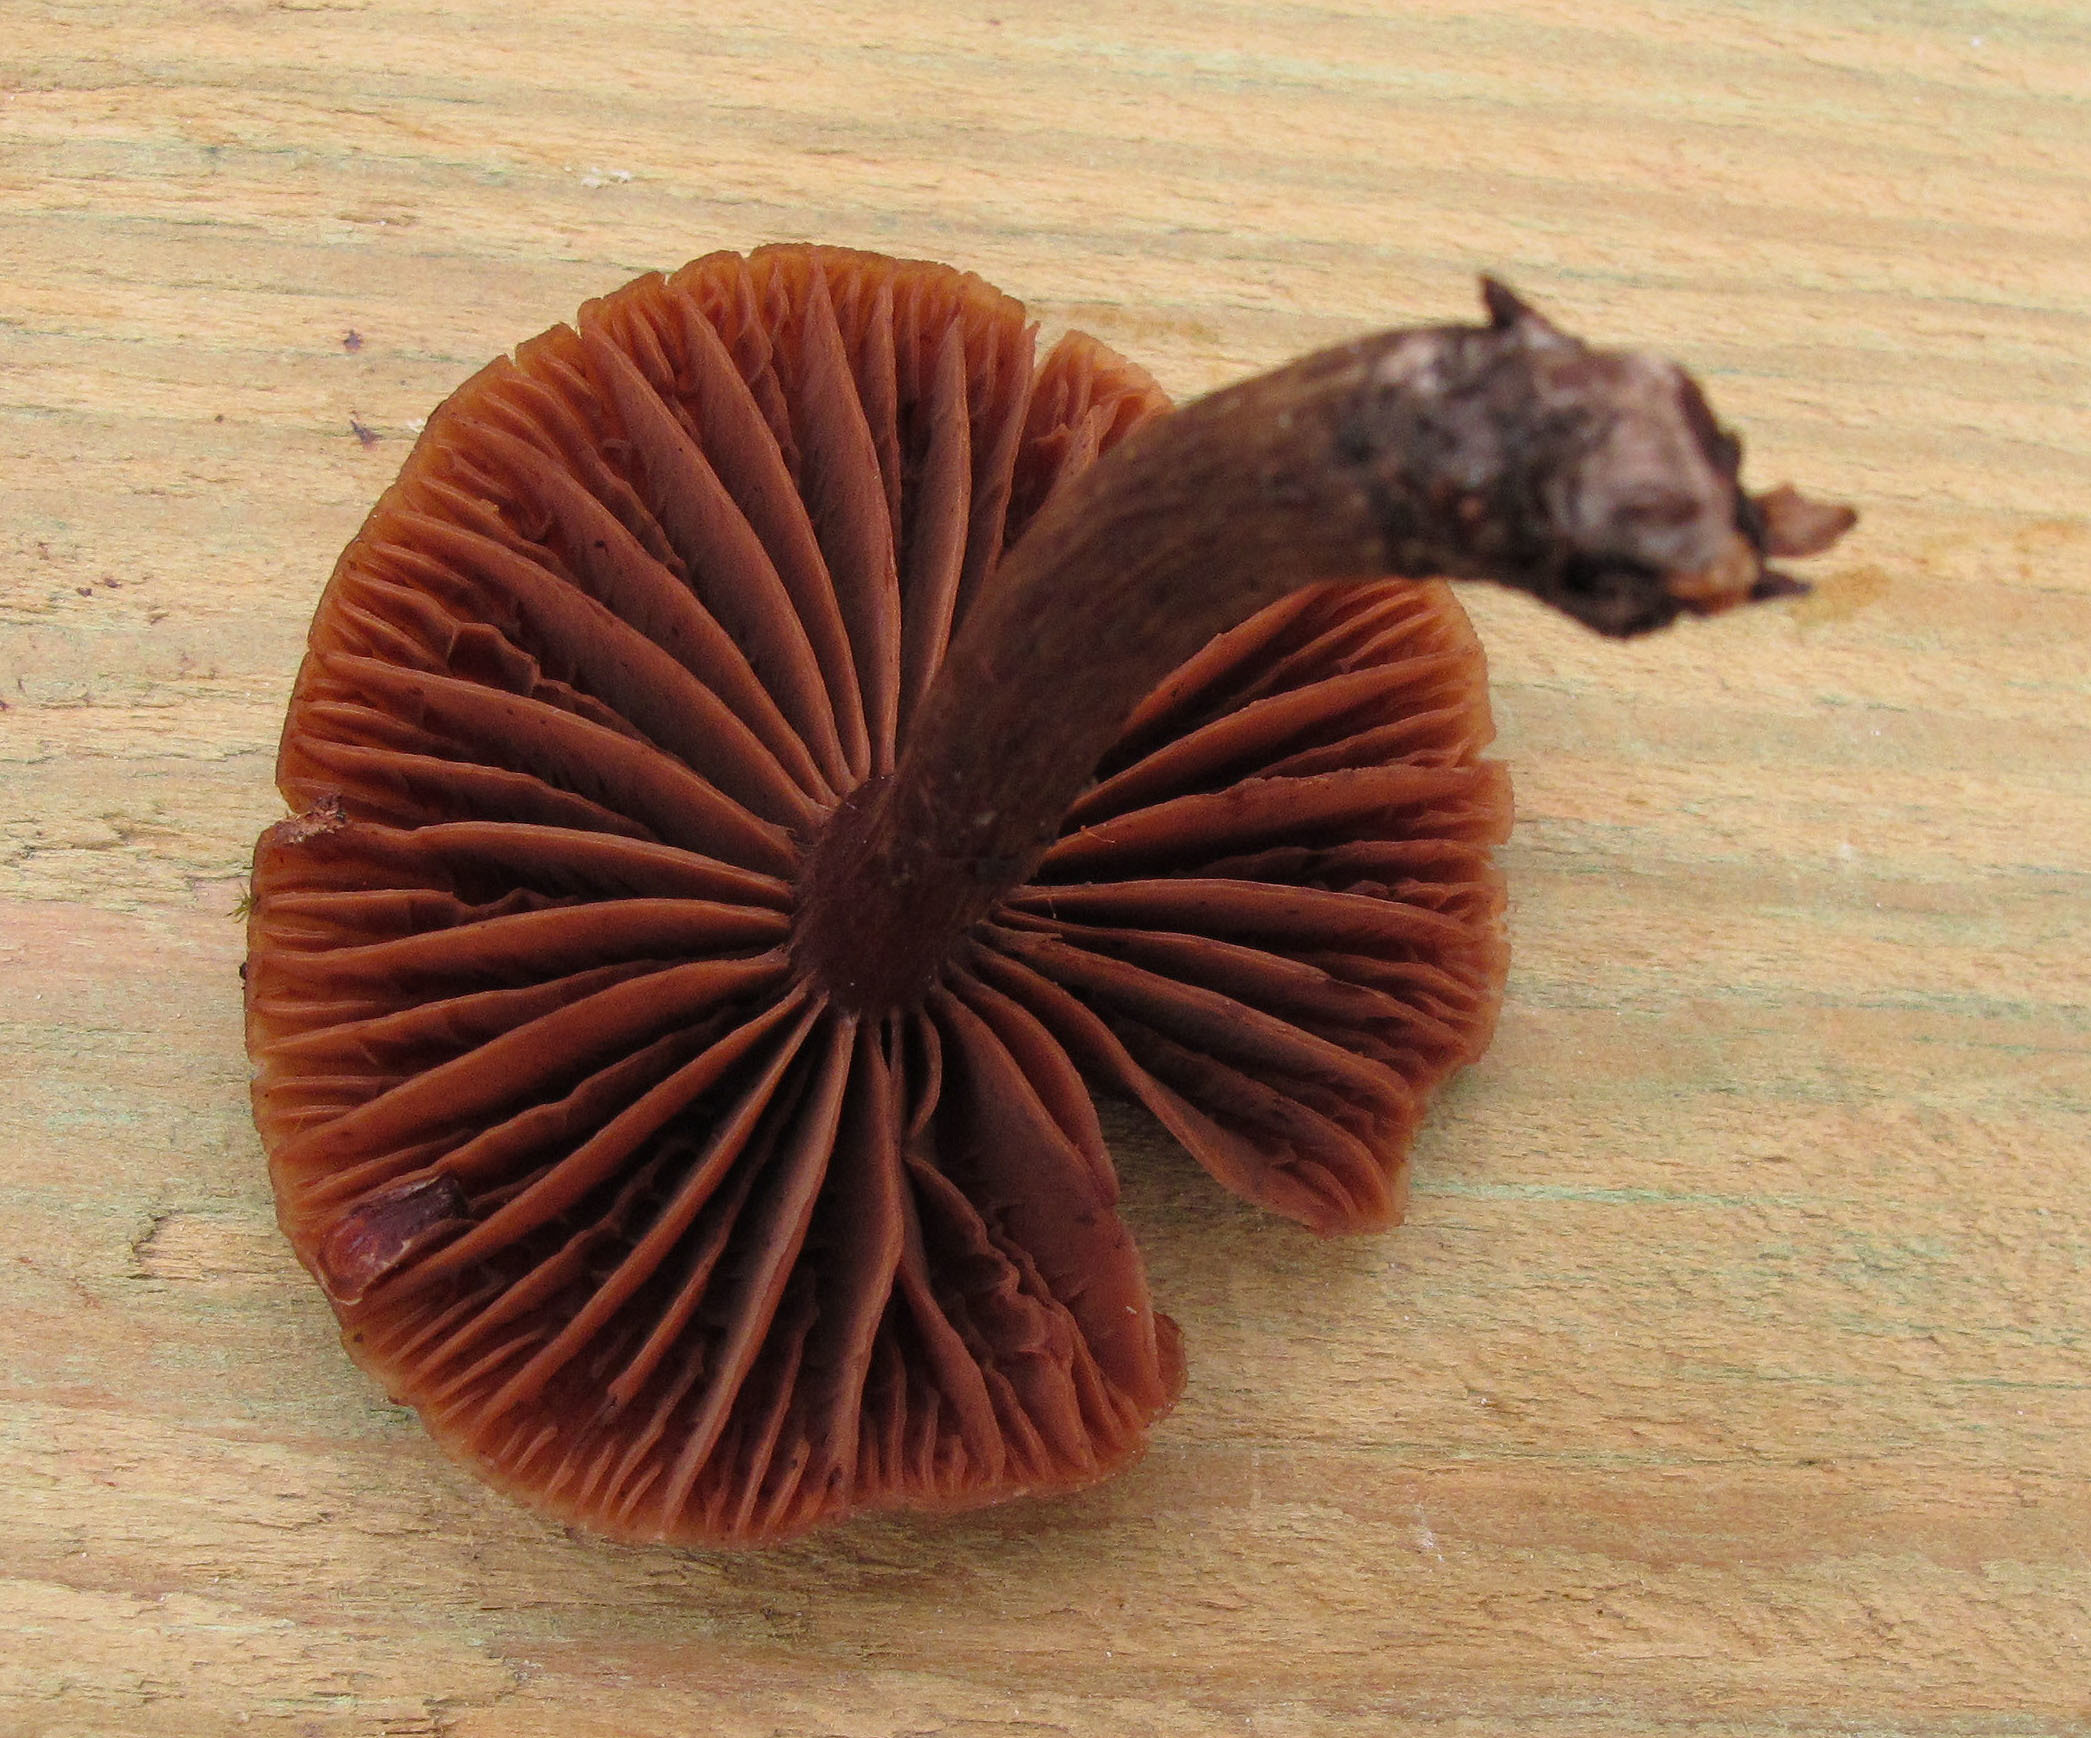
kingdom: Fungi
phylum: Basidiomycota
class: Agaricomycetes
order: Agaricales
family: Cortinariaceae
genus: Cortinarius
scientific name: Cortinarius uraceus
